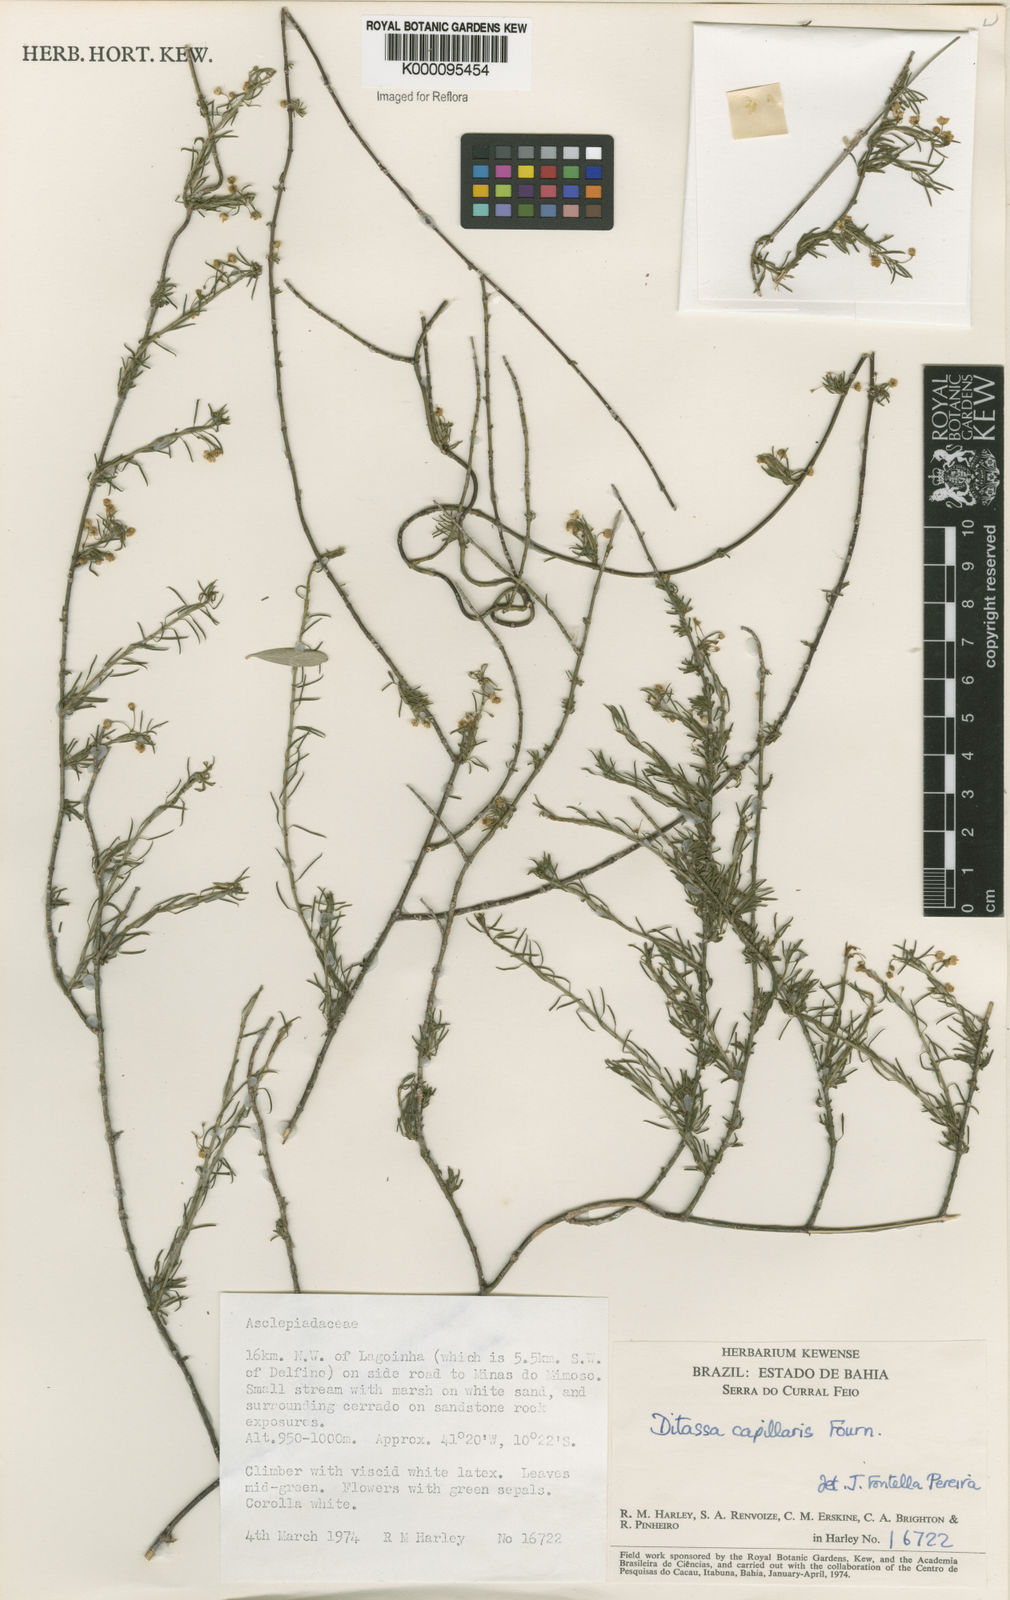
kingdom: Plantae
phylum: Tracheophyta
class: Magnoliopsida
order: Gentianales
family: Apocynaceae
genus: Ditassa
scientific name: Ditassa capillaris
